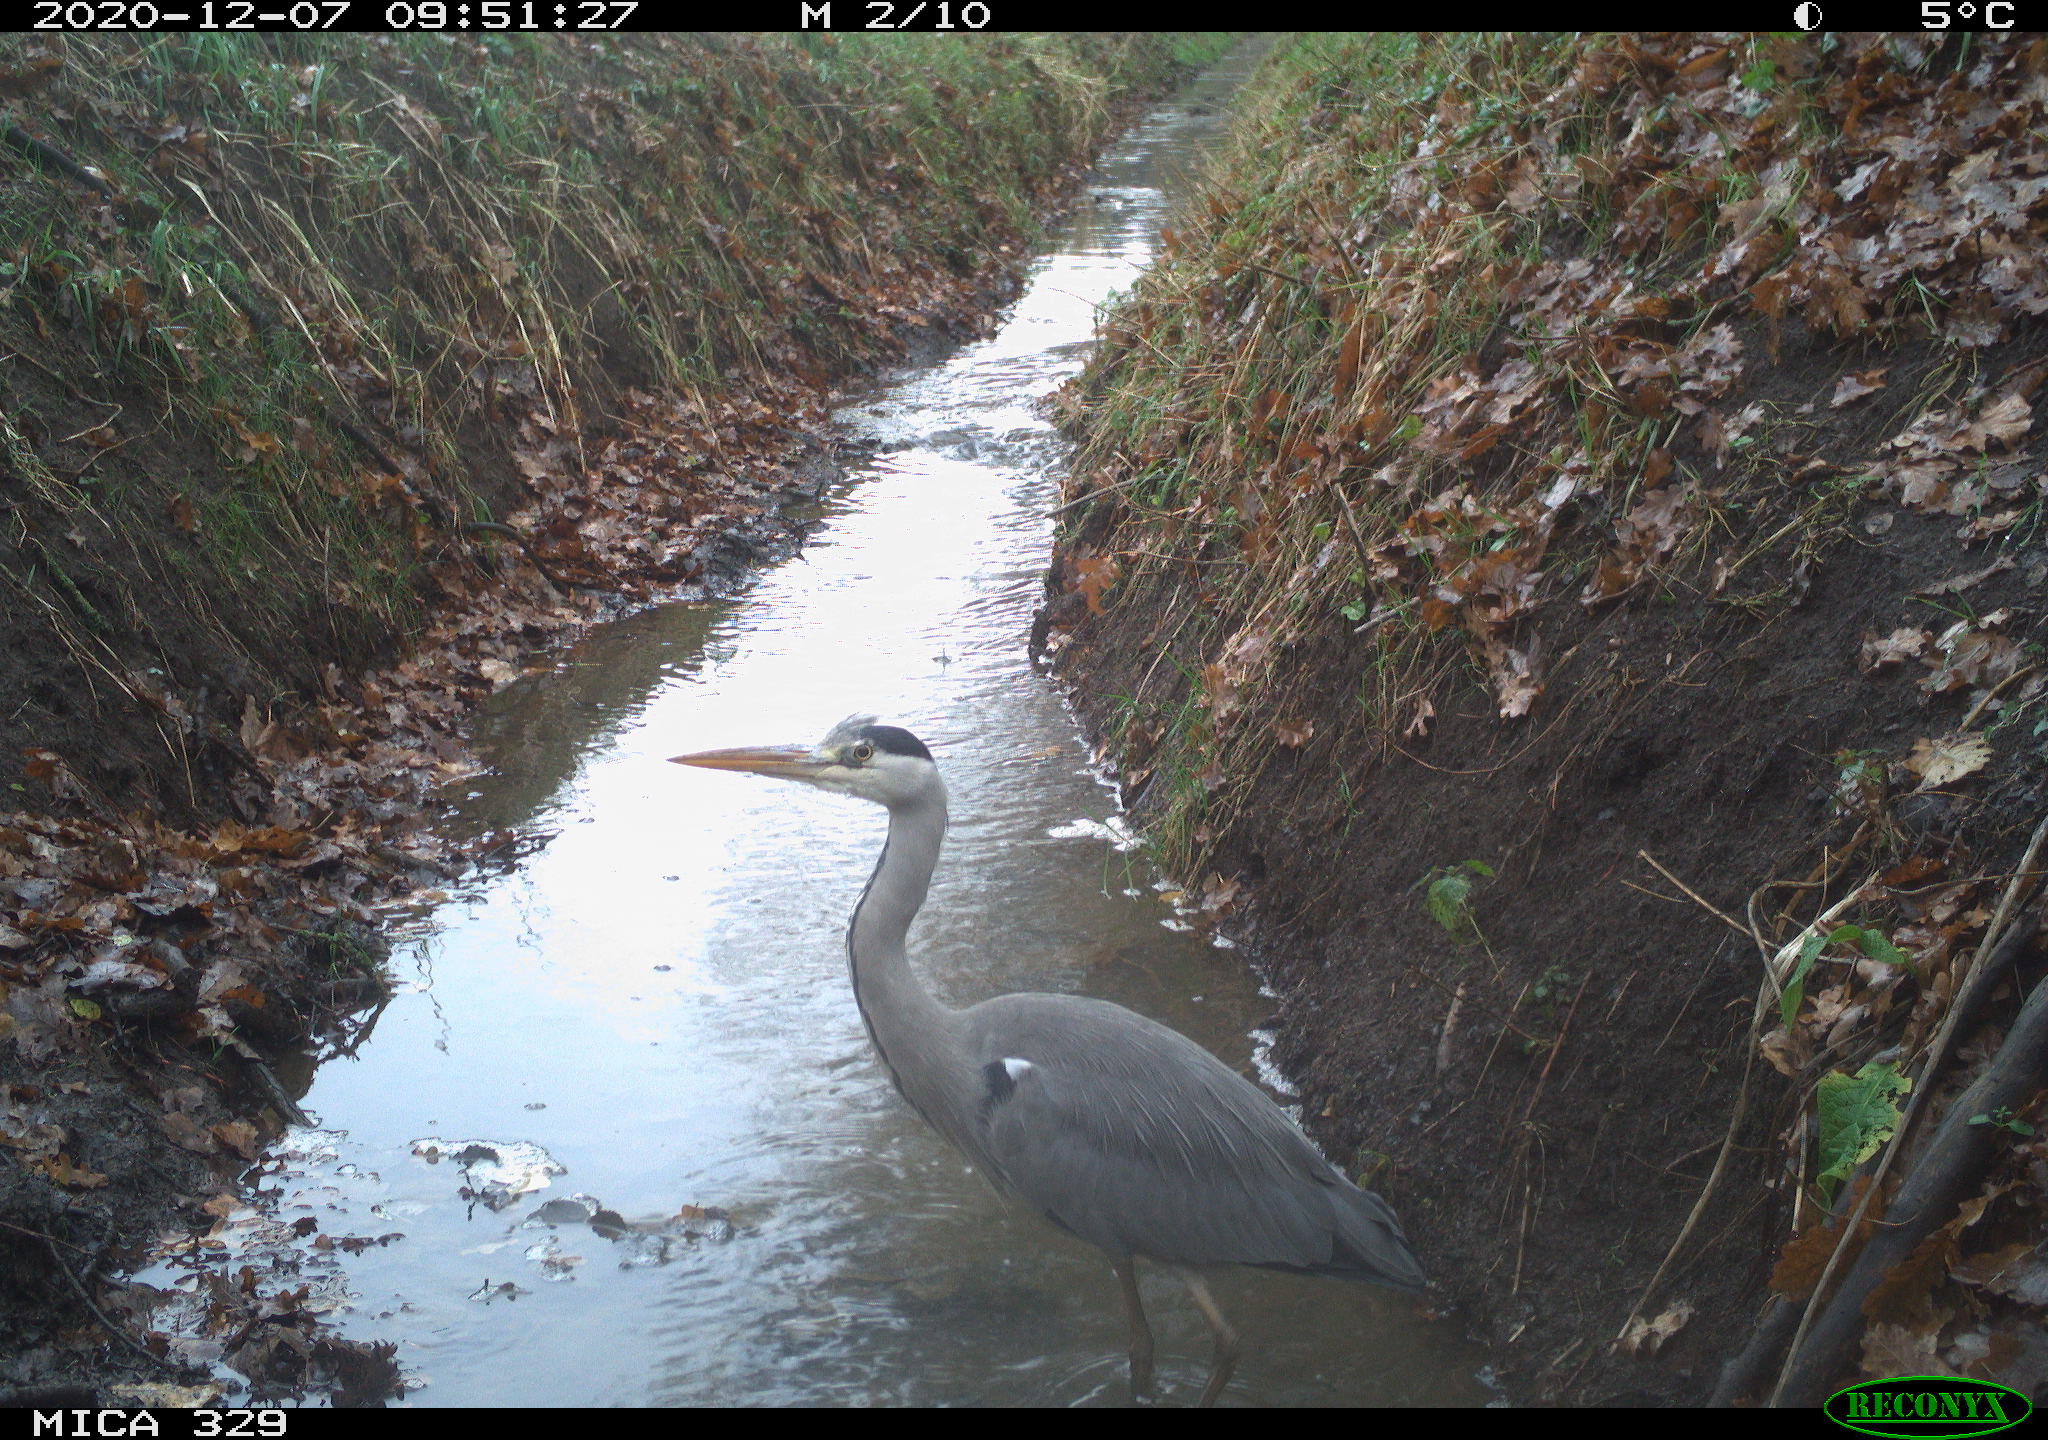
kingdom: Animalia
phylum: Chordata
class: Aves
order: Pelecaniformes
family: Ardeidae
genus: Ardea
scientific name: Ardea cinerea
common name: Grey heron
